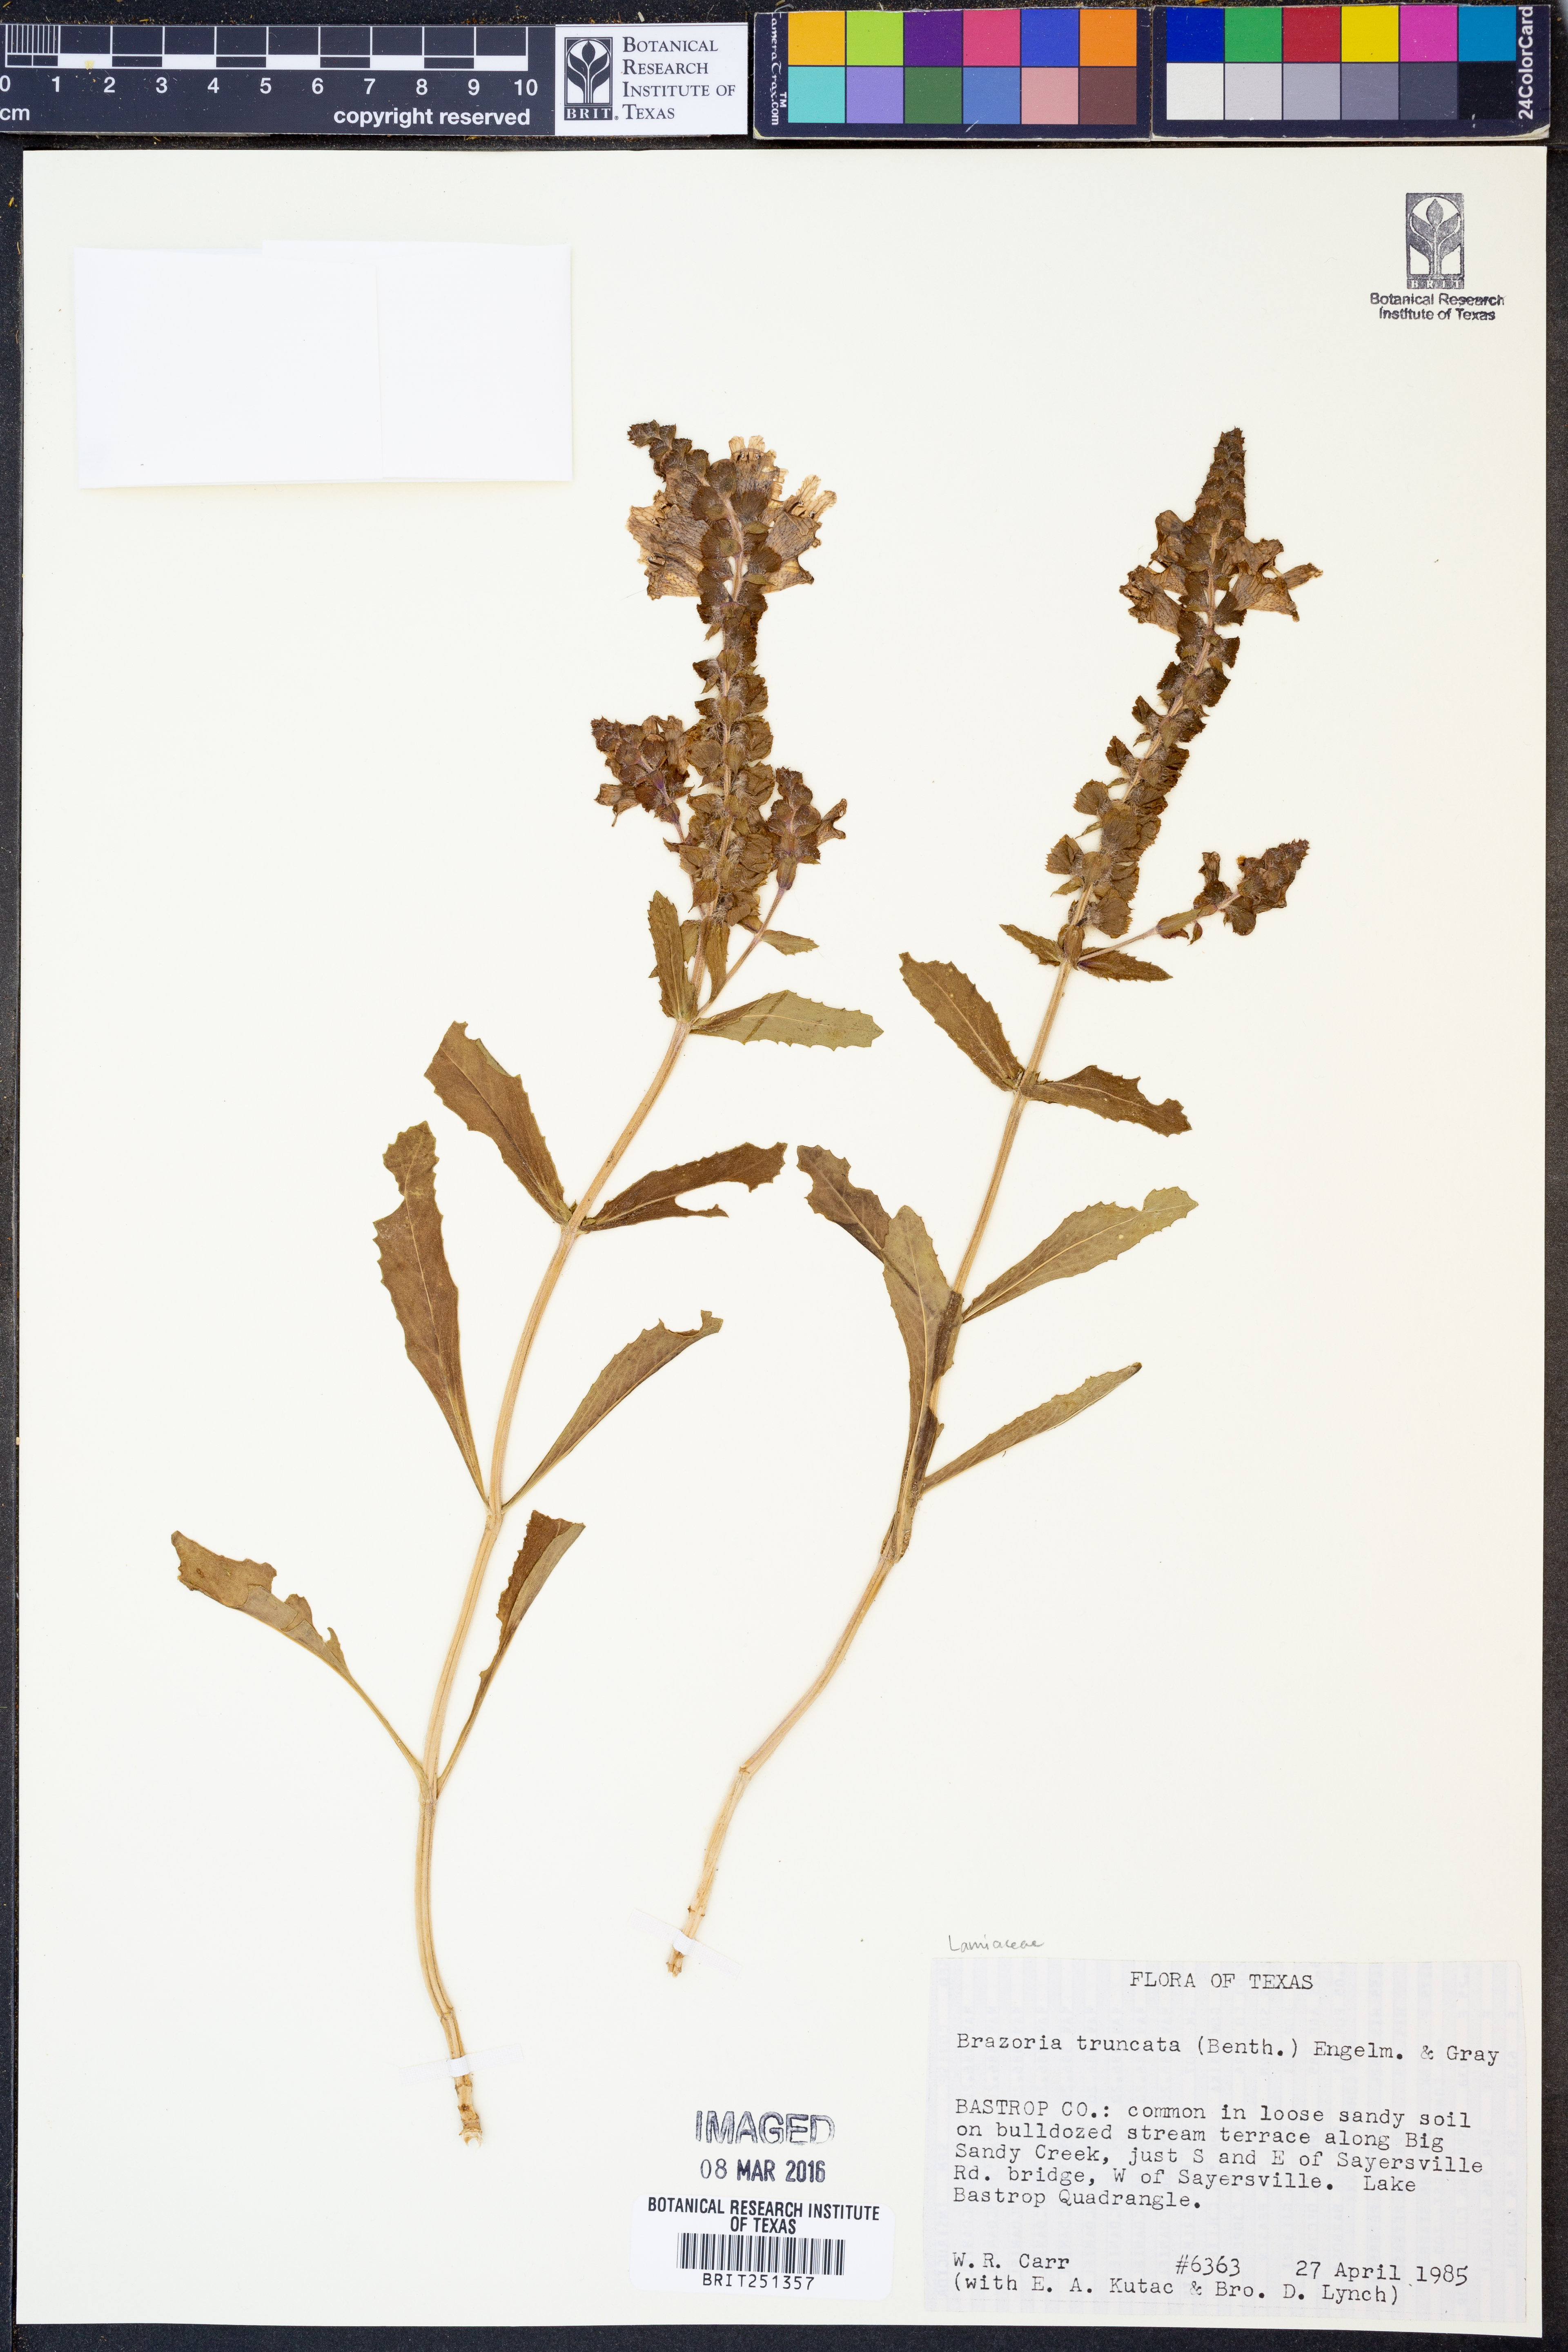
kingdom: Plantae
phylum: Tracheophyta
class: Magnoliopsida
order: Lamiales
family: Lamiaceae
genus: Brazoria
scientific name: Brazoria truncata
